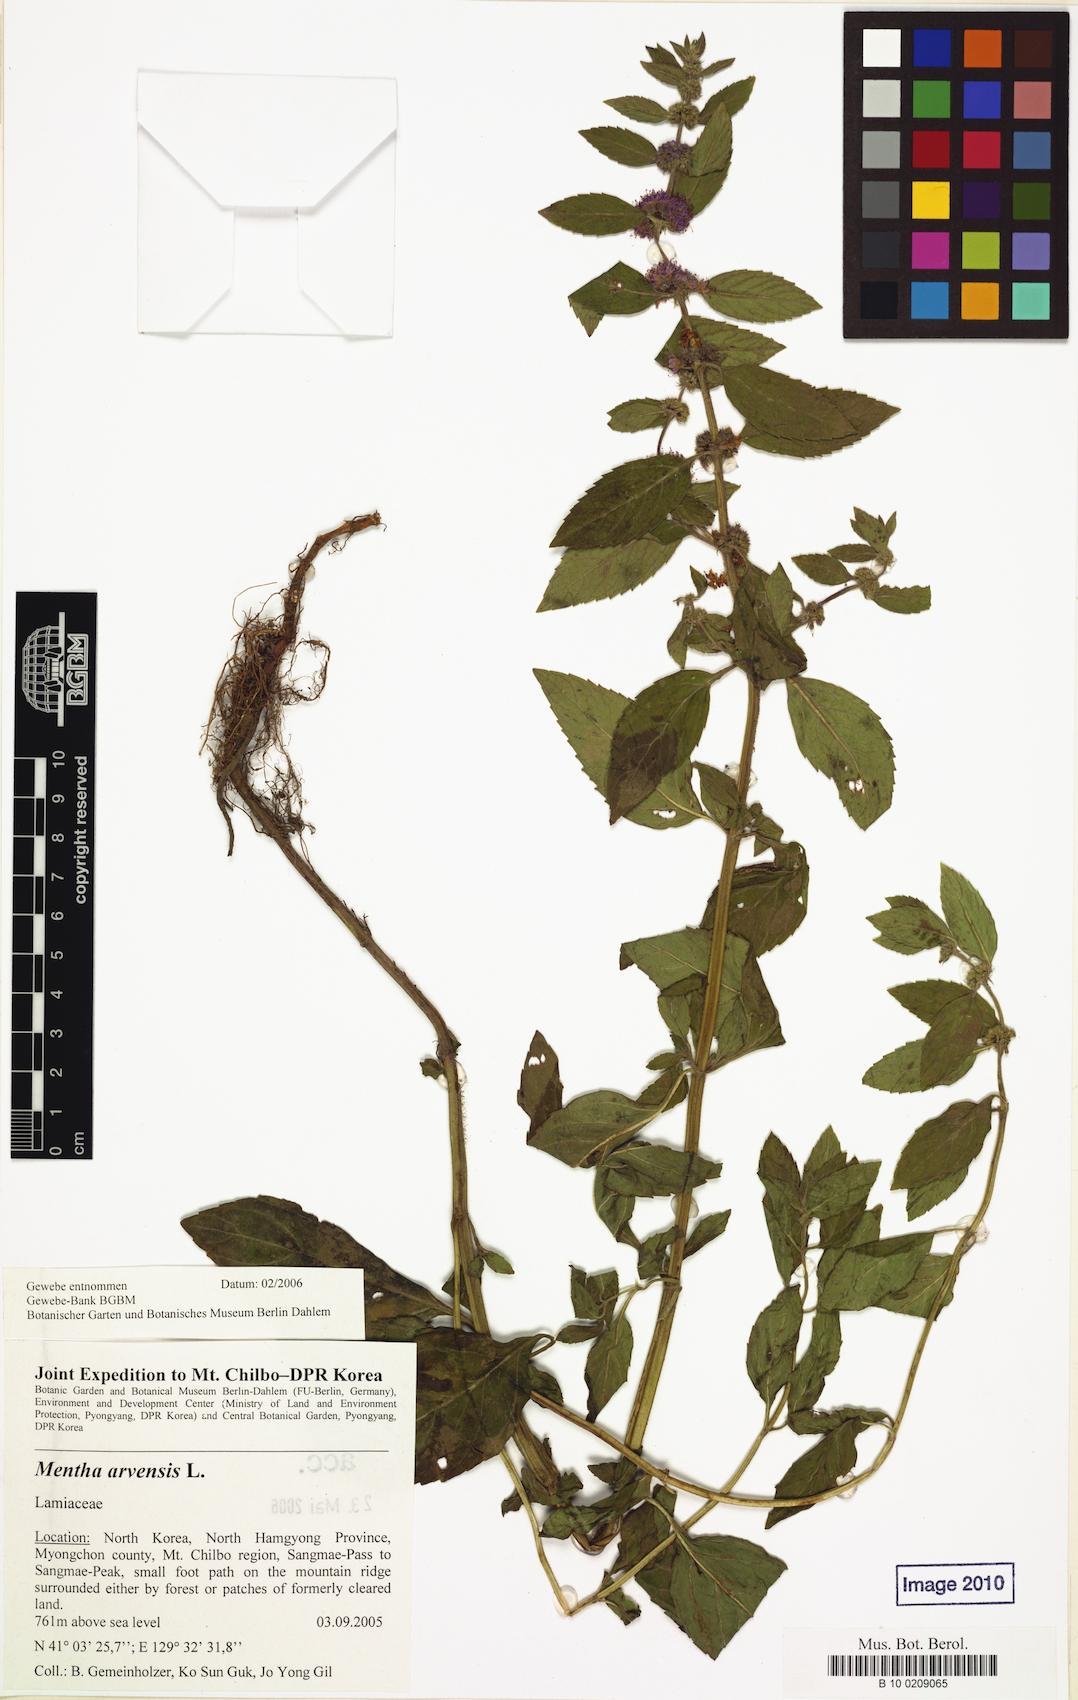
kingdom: Plantae
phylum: Tracheophyta
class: Magnoliopsida
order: Lamiales
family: Lamiaceae
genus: Mentha
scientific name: Mentha arvensis
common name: Corn mint
